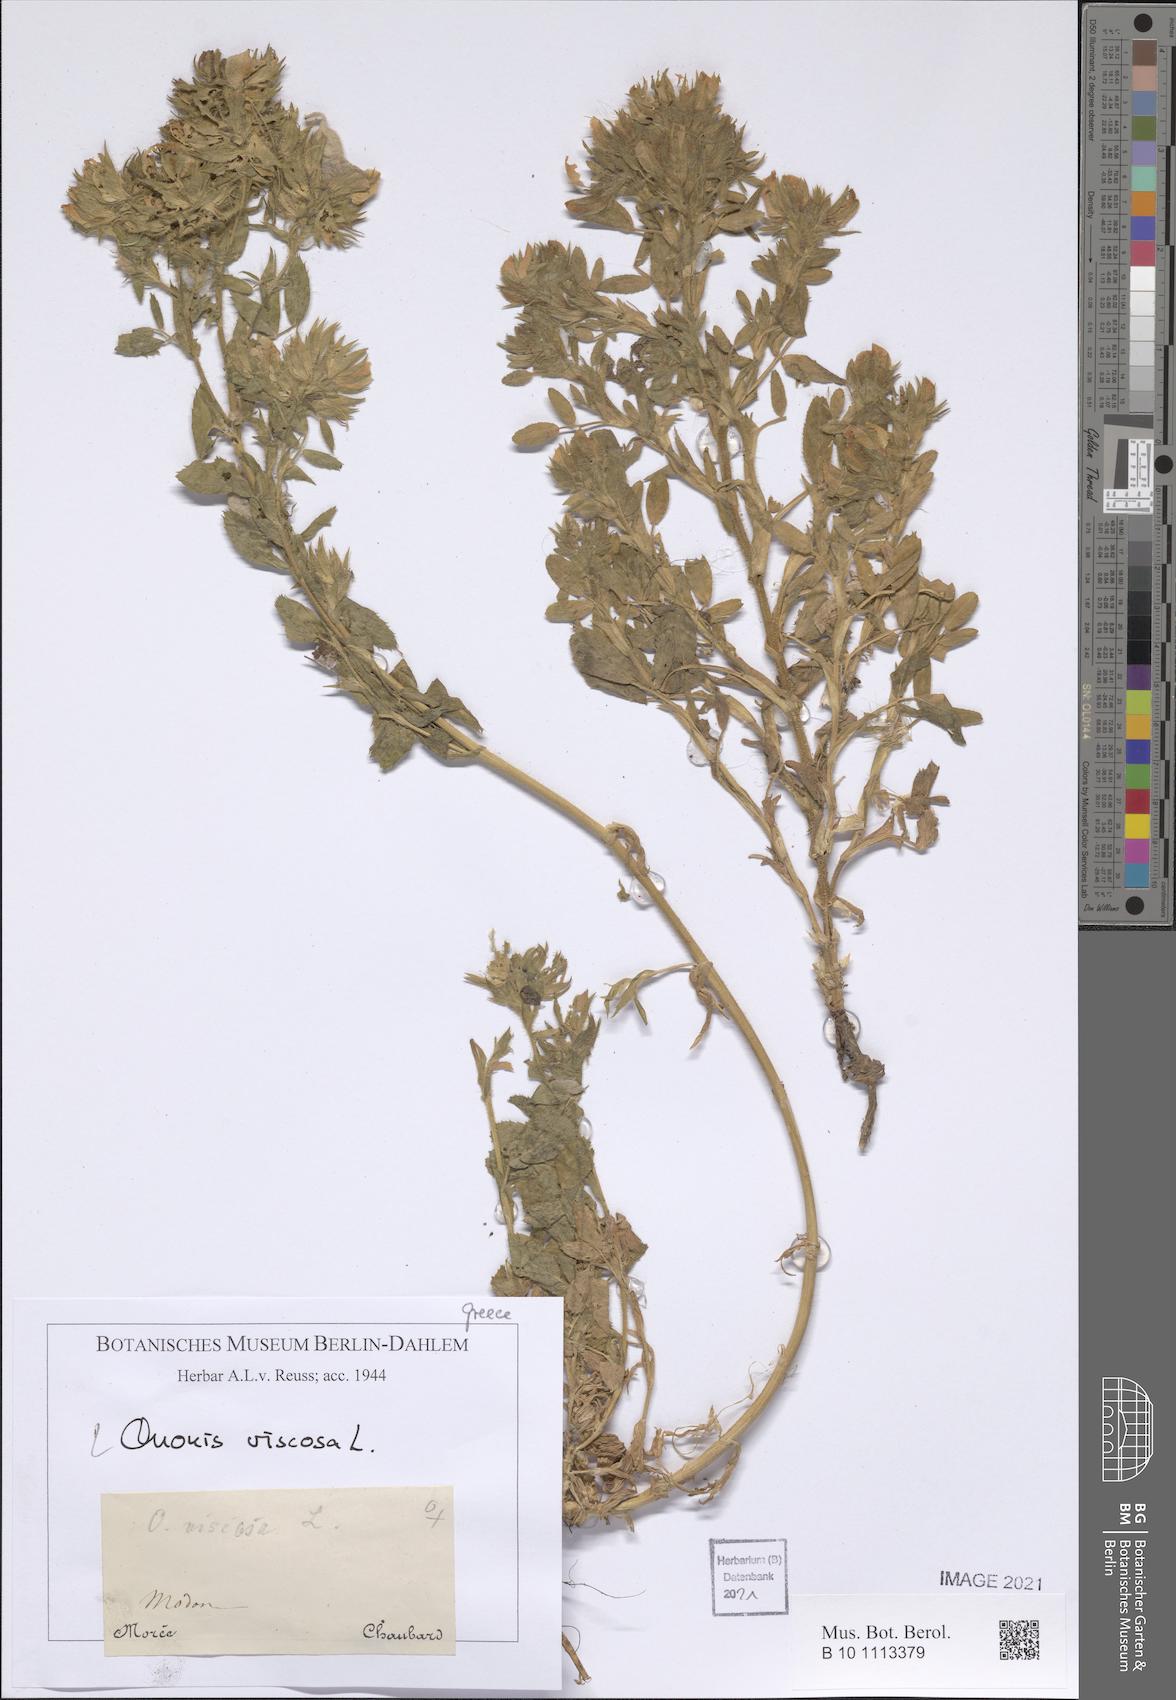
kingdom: Plantae
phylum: Tracheophyta
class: Magnoliopsida
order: Fabales
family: Fabaceae
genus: Ononis
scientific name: Ononis viscosa
